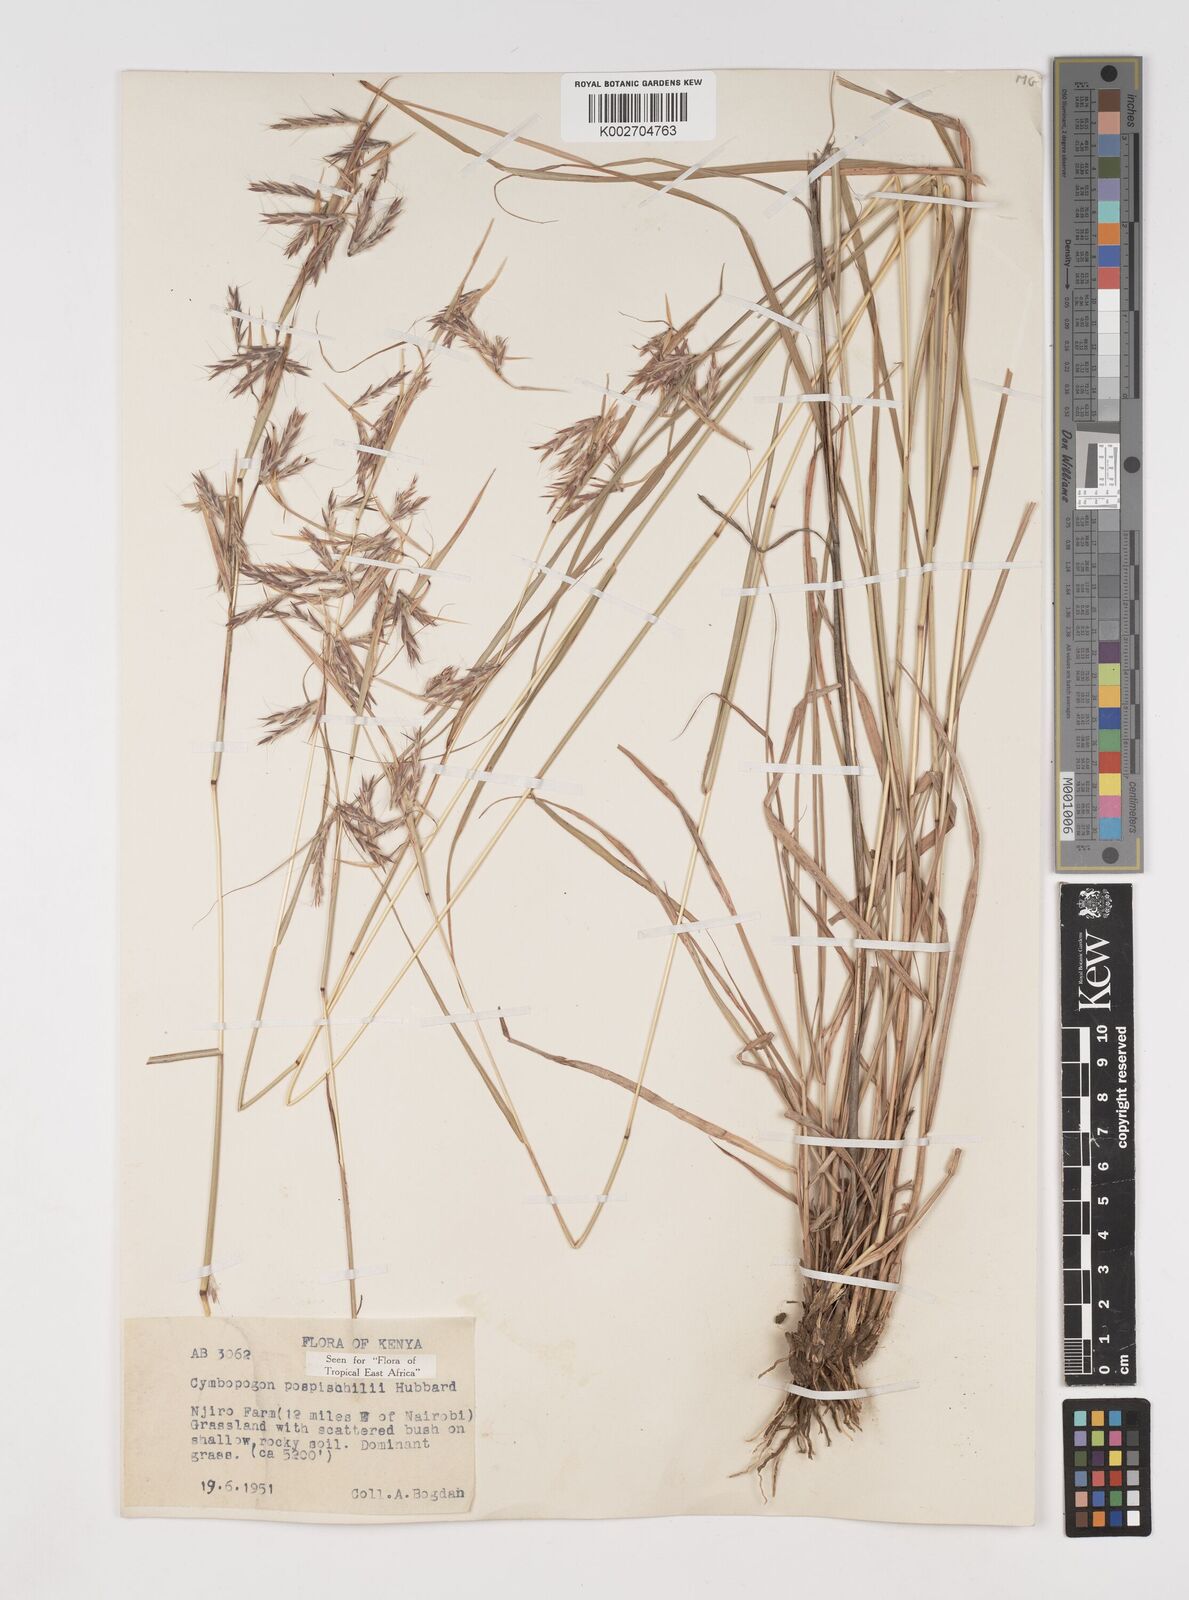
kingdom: Plantae
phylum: Tracheophyta
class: Liliopsida
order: Poales
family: Poaceae
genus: Cymbopogon
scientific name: Cymbopogon pospischilii
